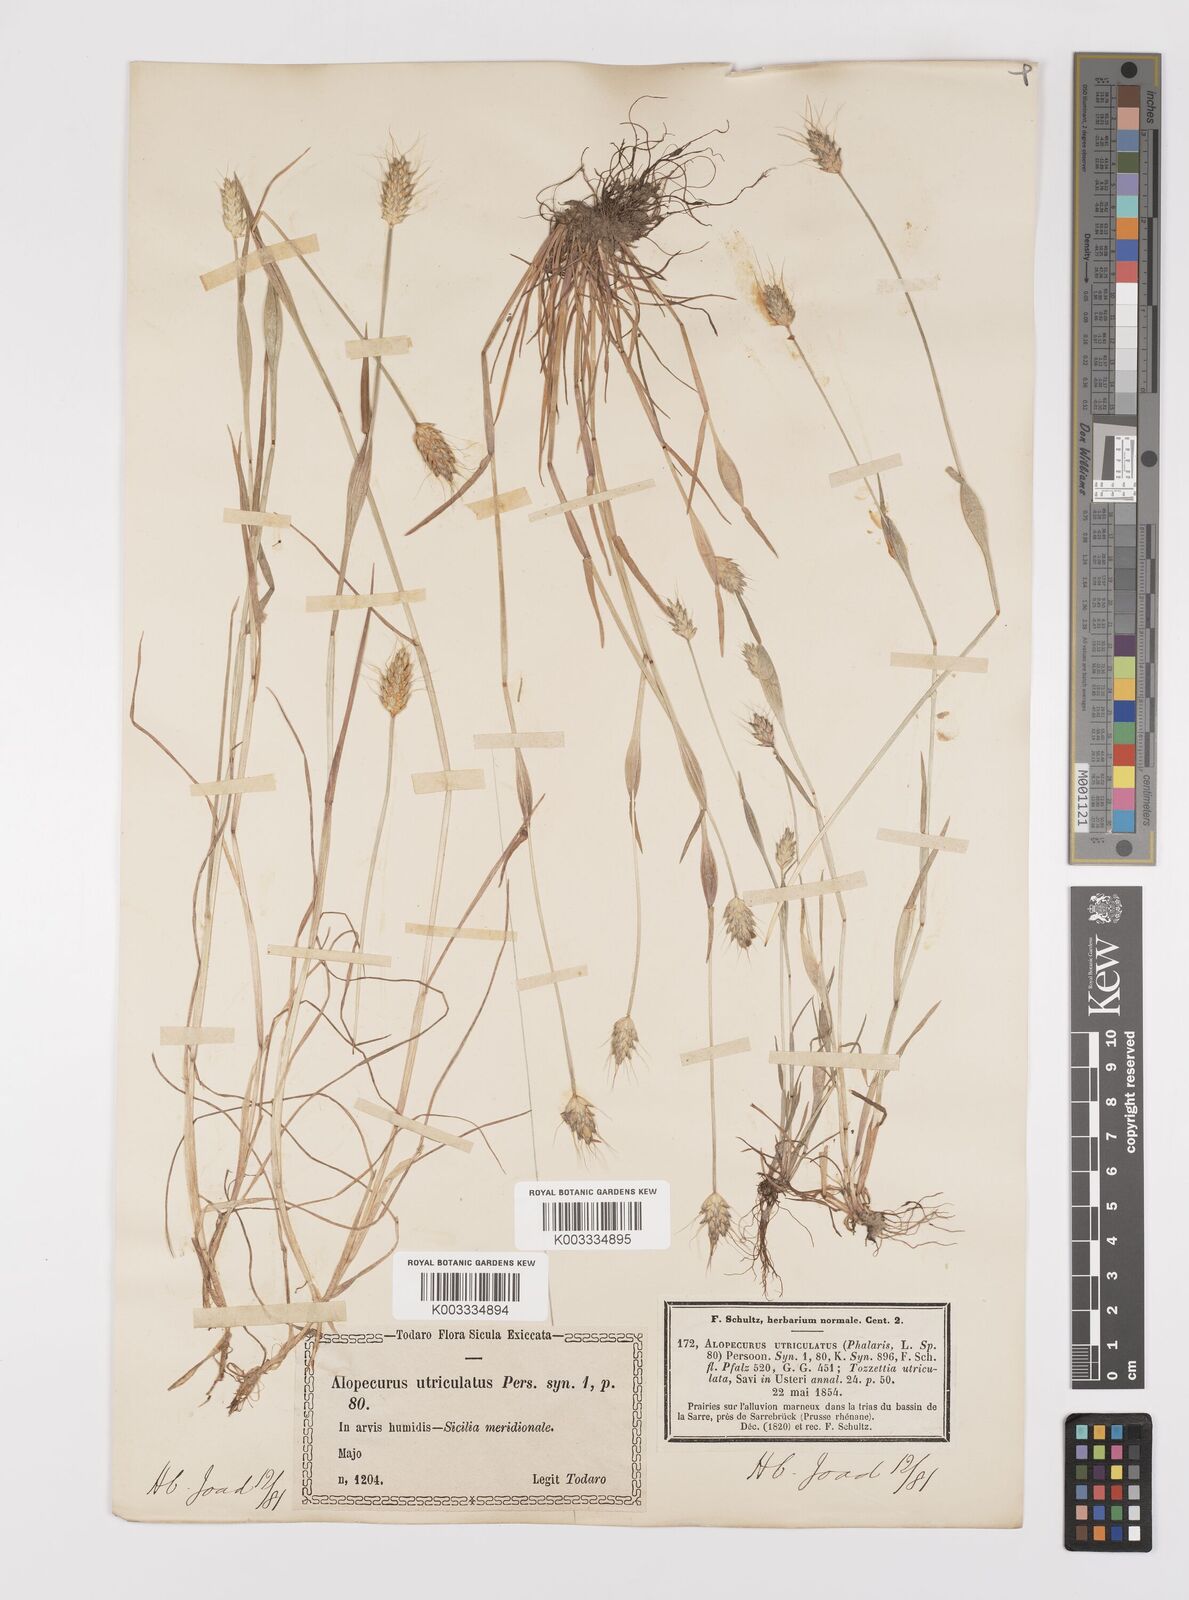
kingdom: Plantae
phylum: Tracheophyta
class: Liliopsida
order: Poales
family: Poaceae
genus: Alopecurus
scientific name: Alopecurus rendlei
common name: Rendle's meadow foxtail
